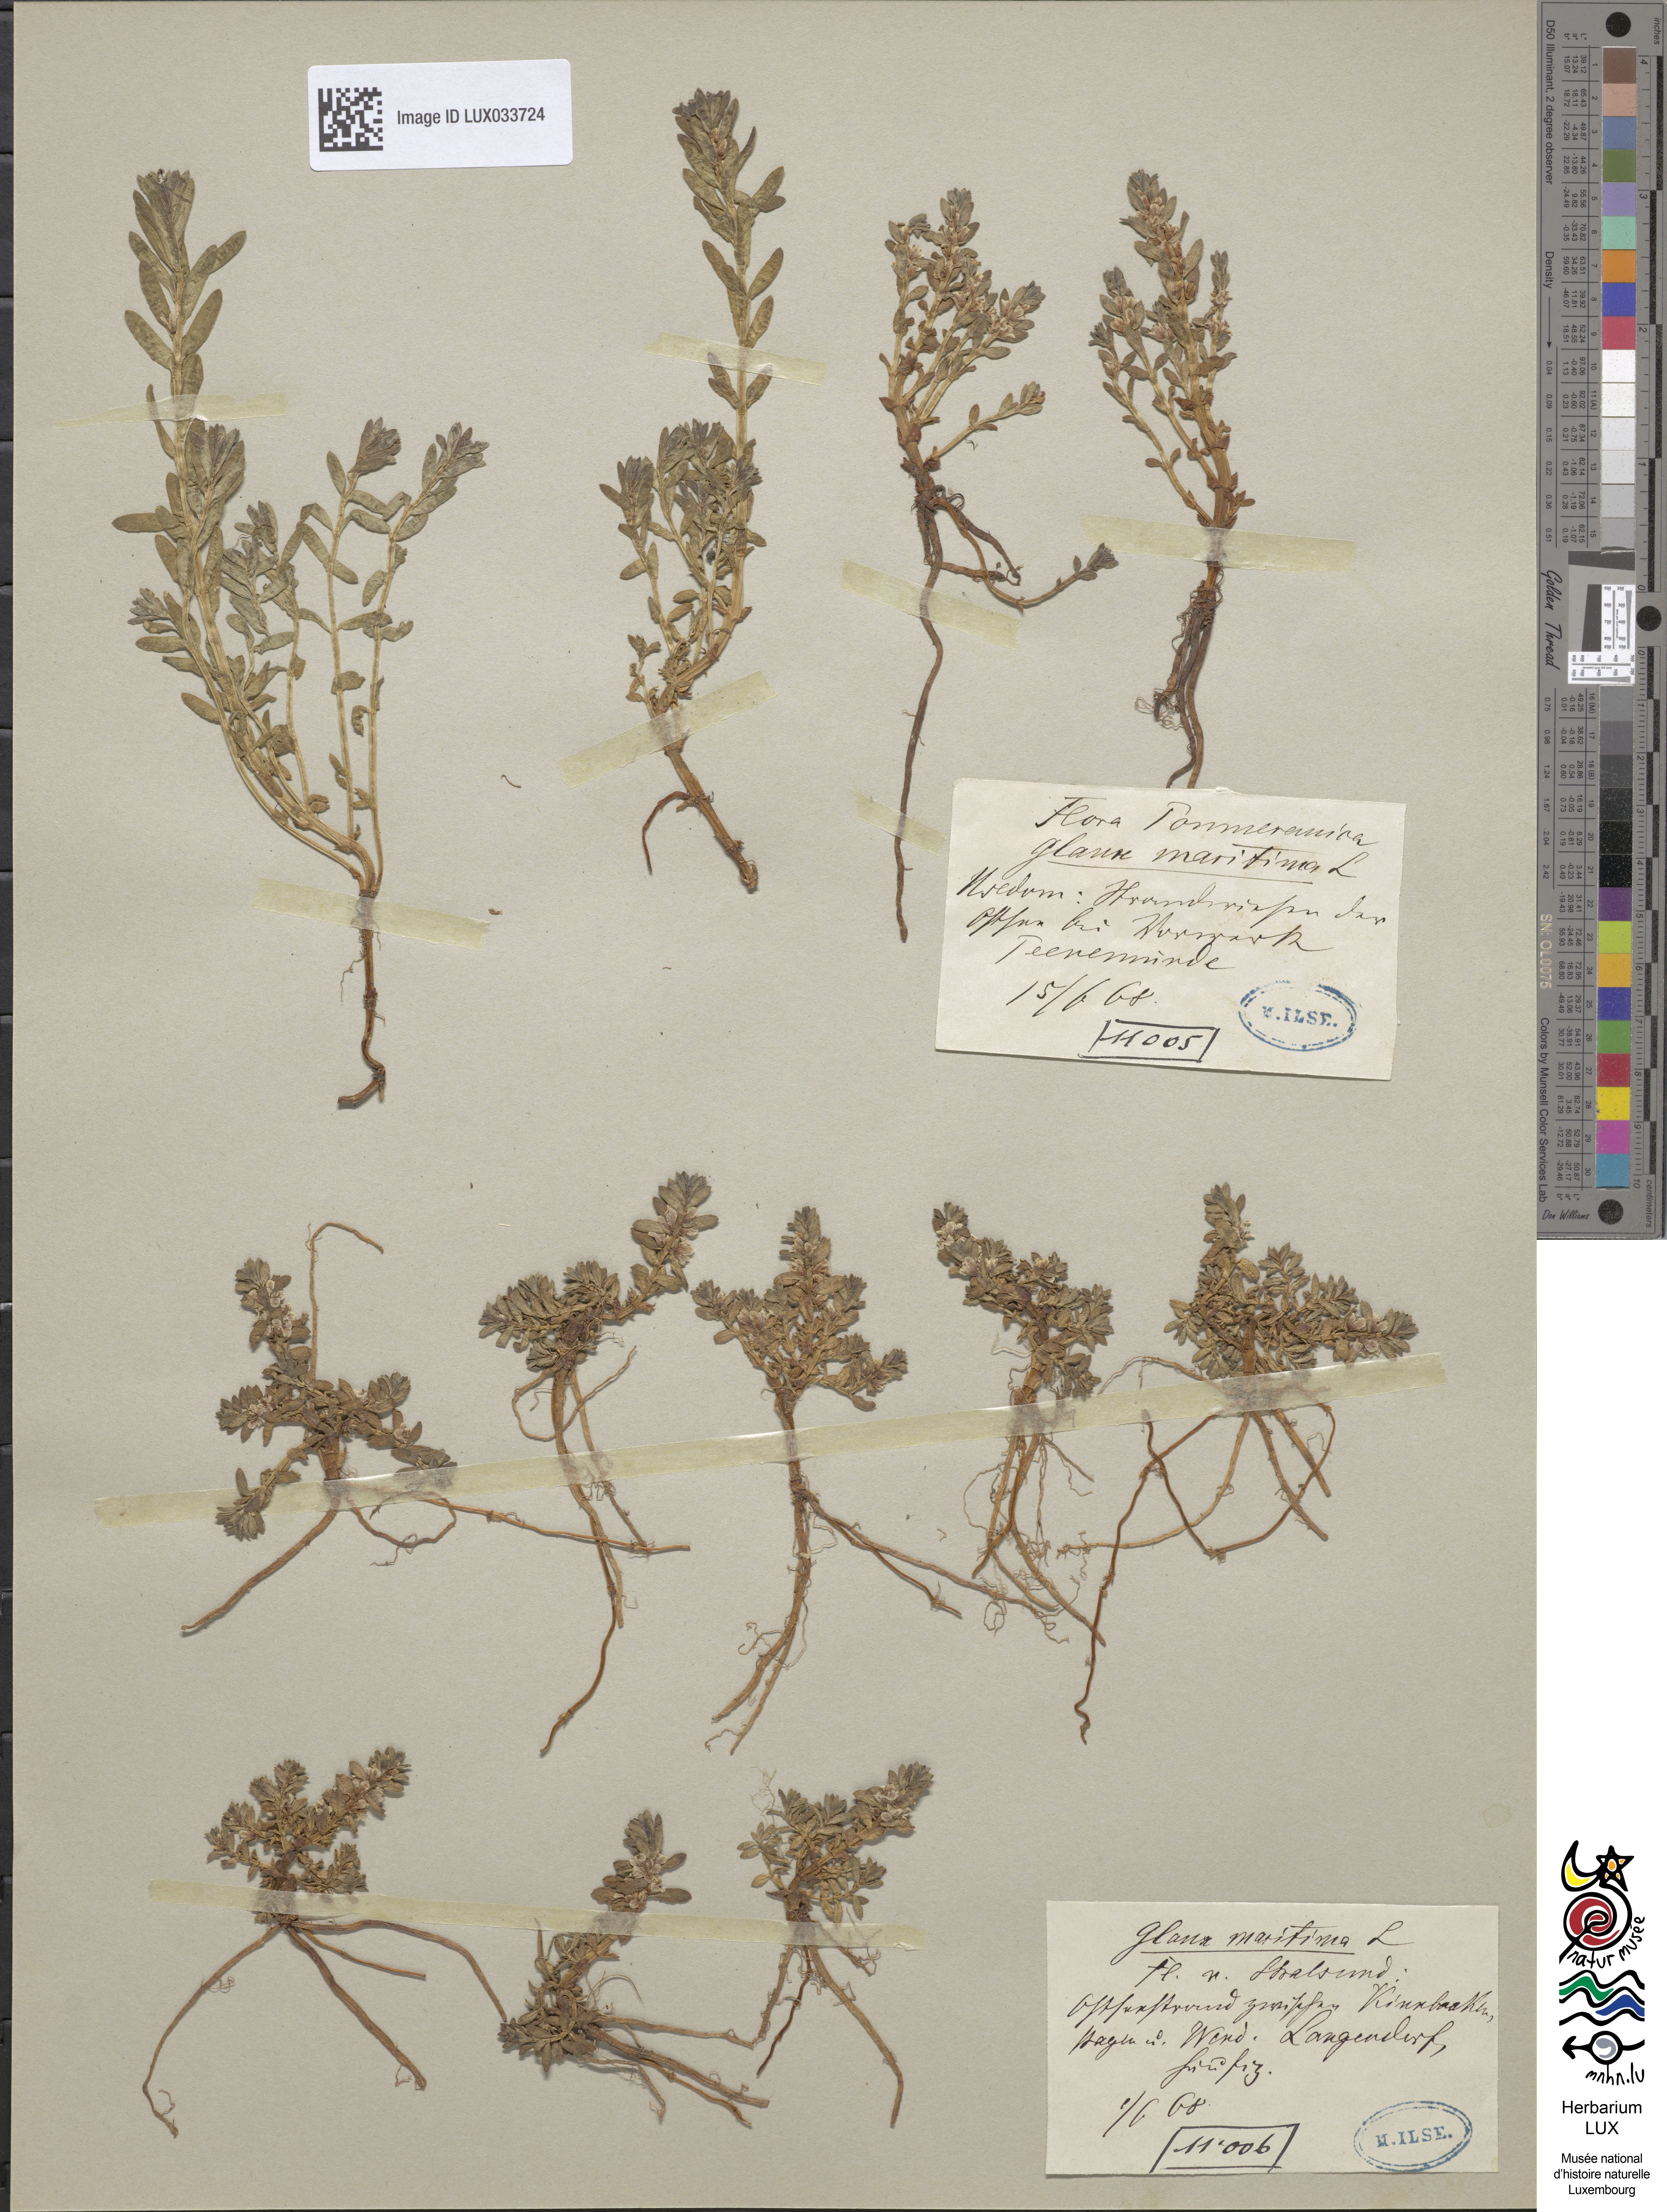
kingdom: Plantae
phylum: Tracheophyta
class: Magnoliopsida
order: Ericales
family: Primulaceae
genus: Lysimachia
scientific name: Lysimachia maritima
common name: Sea milkwort
